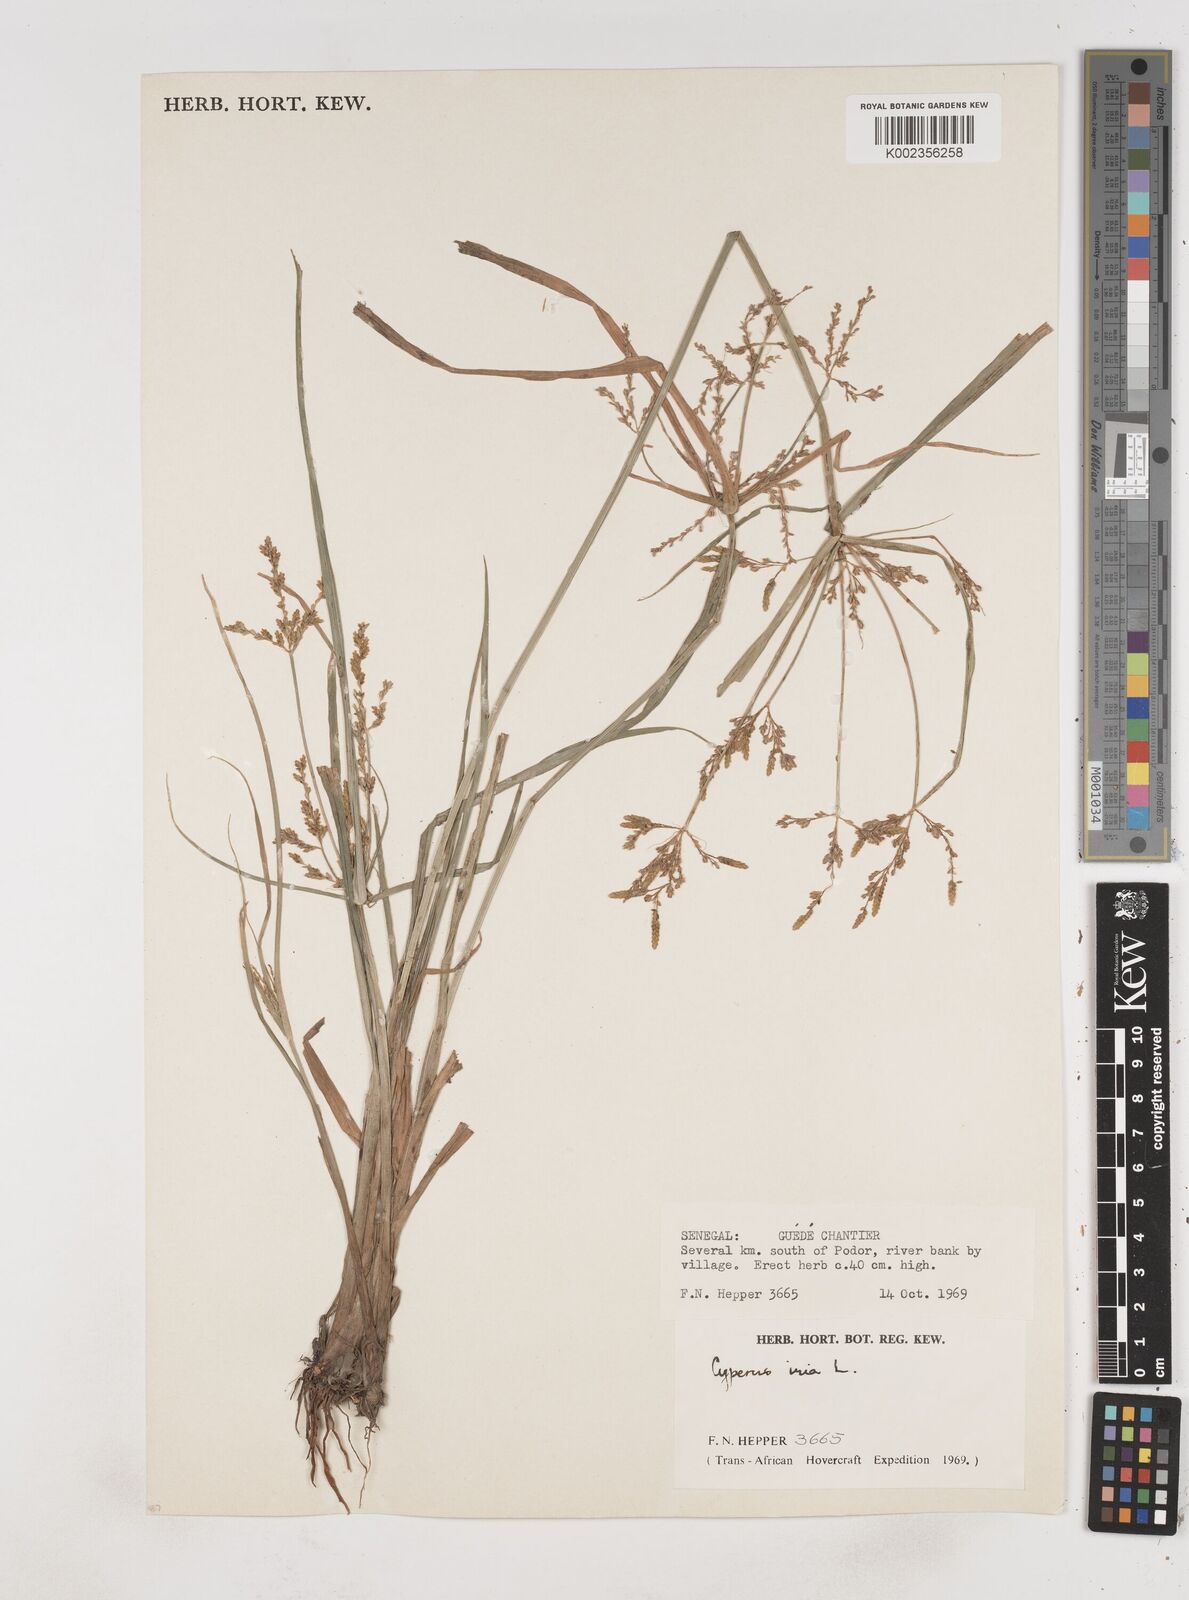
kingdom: Plantae
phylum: Tracheophyta
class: Liliopsida
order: Poales
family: Cyperaceae
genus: Cyperus
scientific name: Cyperus iria
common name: Ricefield flatsedge
